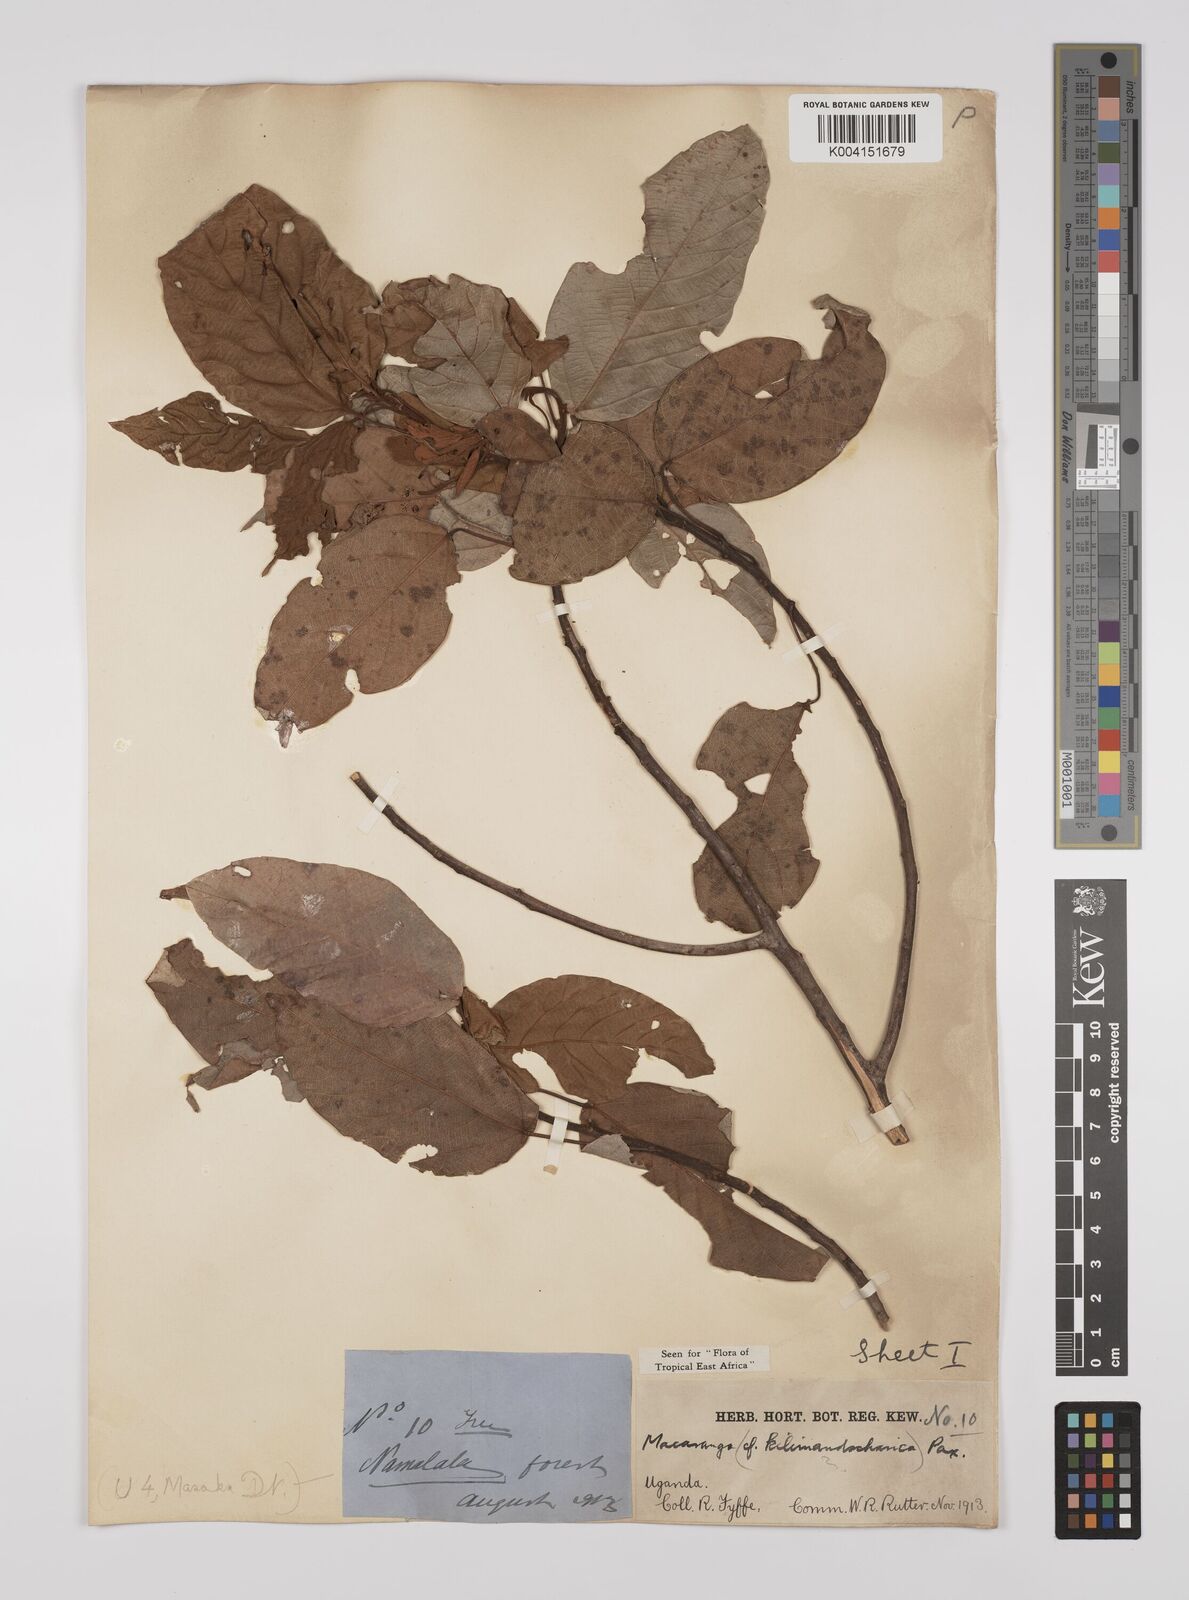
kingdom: Plantae
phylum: Tracheophyta
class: Magnoliopsida
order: Malpighiales
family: Euphorbiaceae
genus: Macaranga
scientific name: Macaranga kilimandscharica
